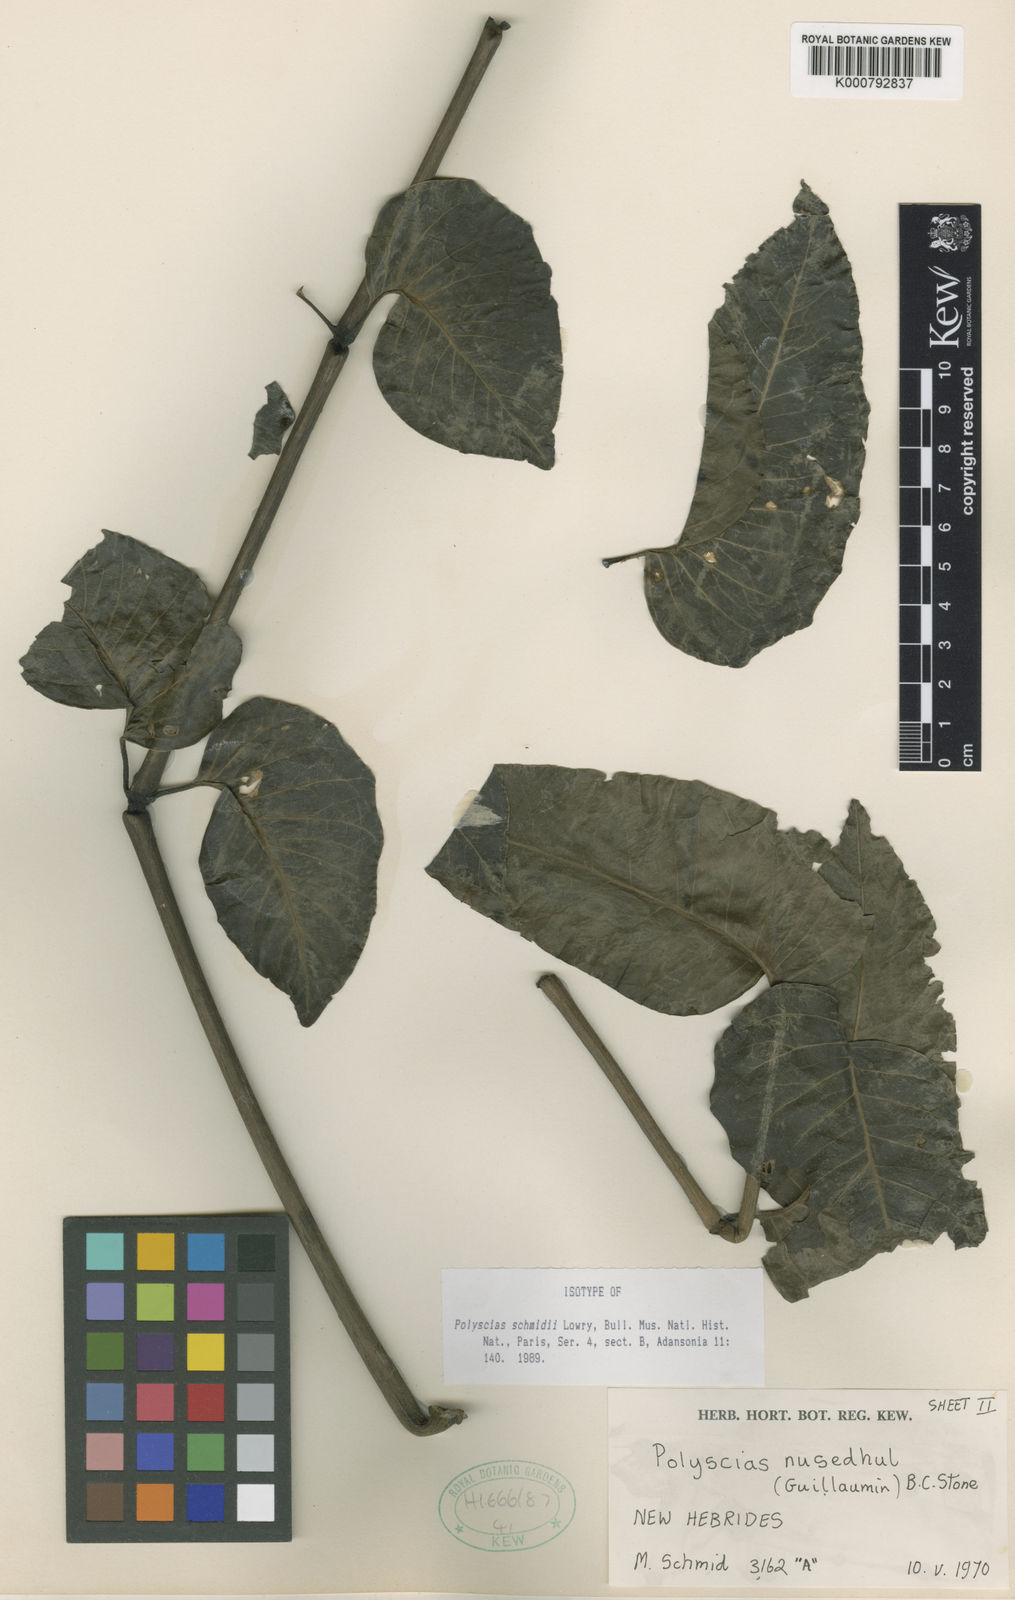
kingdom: Plantae
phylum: Tracheophyta
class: Magnoliopsida
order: Apiales
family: Araliaceae
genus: Polyscias
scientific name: Polyscias schmidii
